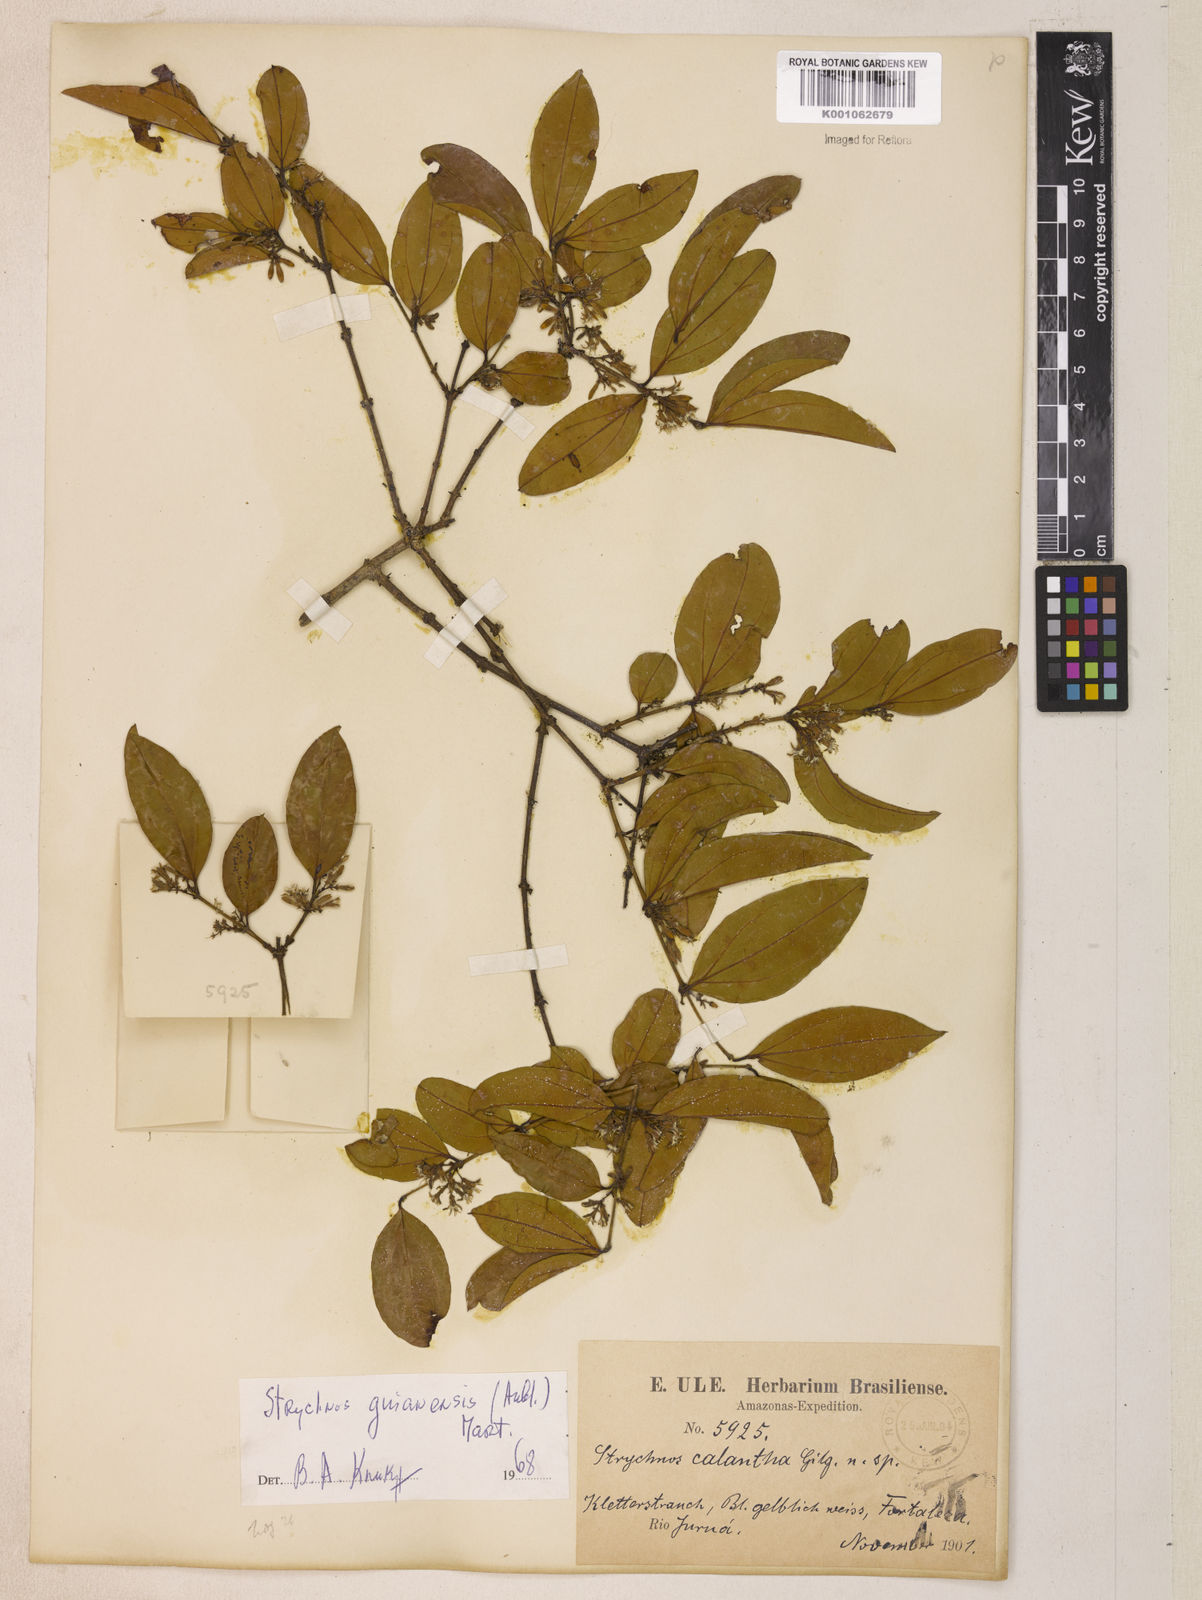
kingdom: Plantae
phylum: Tracheophyta
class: Magnoliopsida
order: Gentianales
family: Loganiaceae
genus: Strychnos
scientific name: Strychnos guianensis
